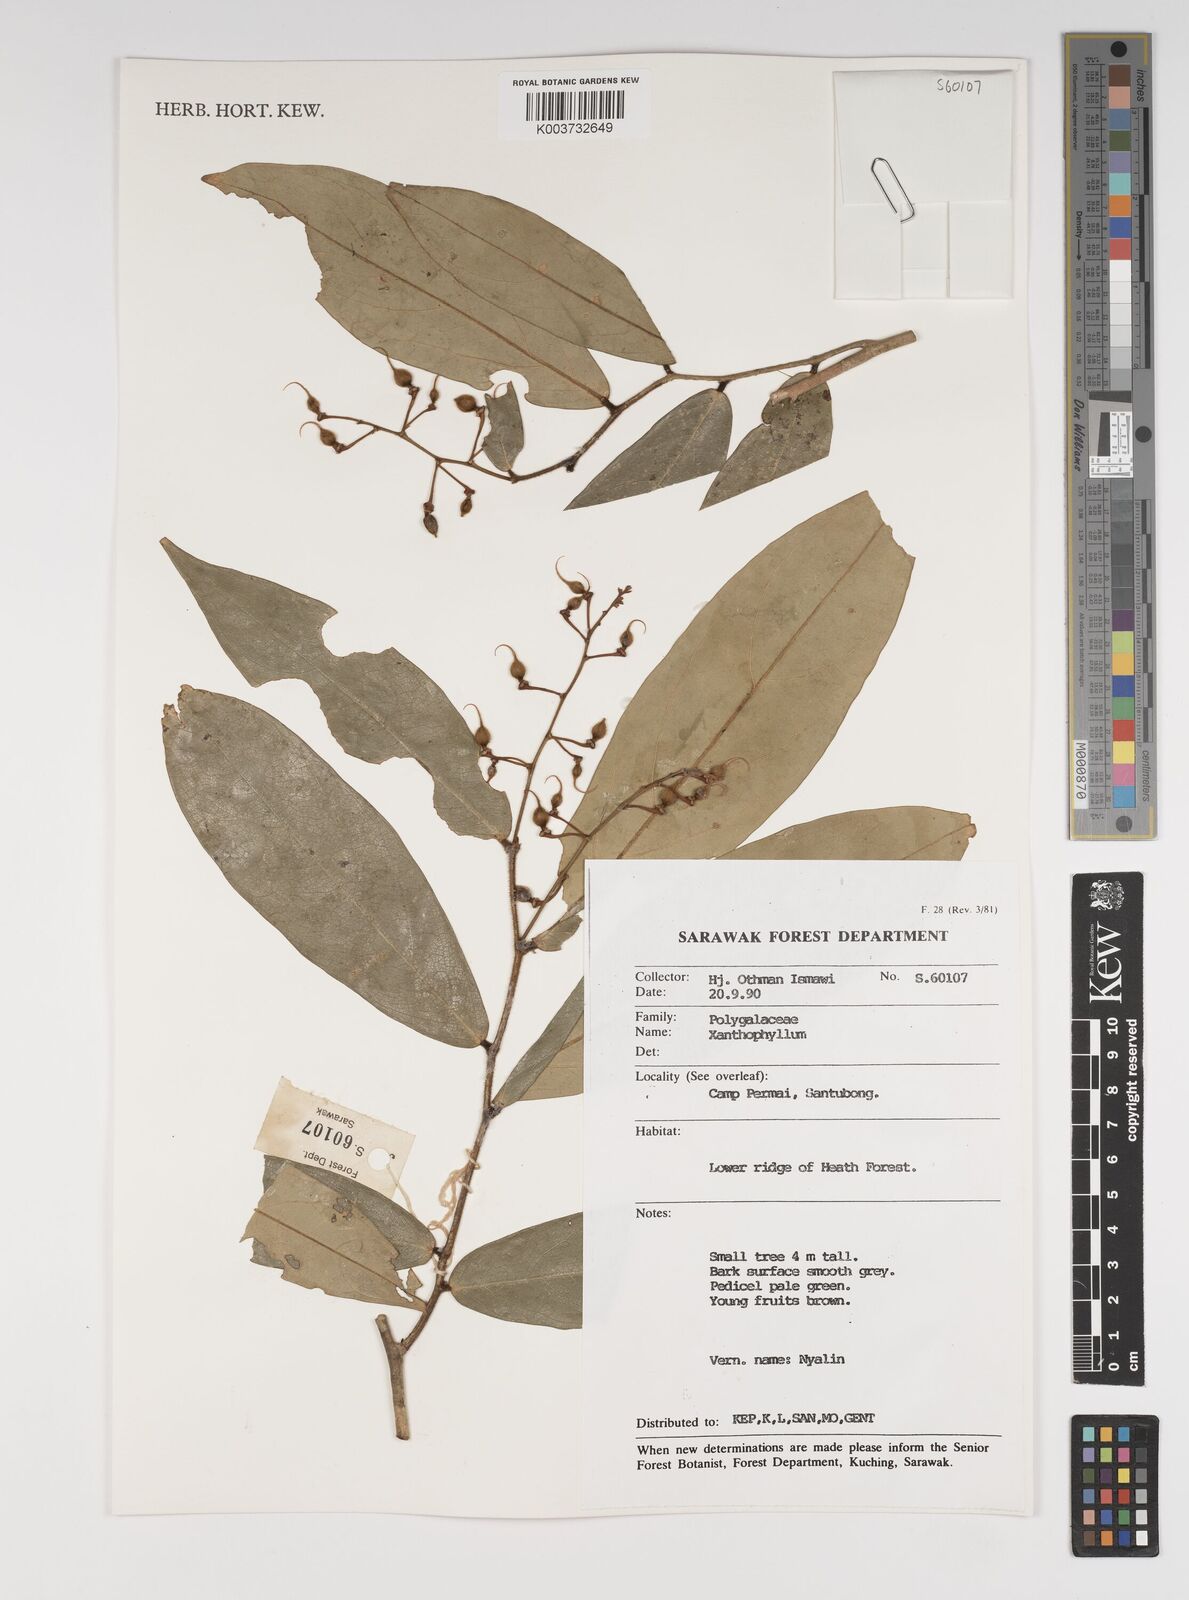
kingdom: Plantae
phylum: Tracheophyta
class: Magnoliopsida
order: Fabales
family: Polygalaceae
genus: Xanthophyllum
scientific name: Xanthophyllum
